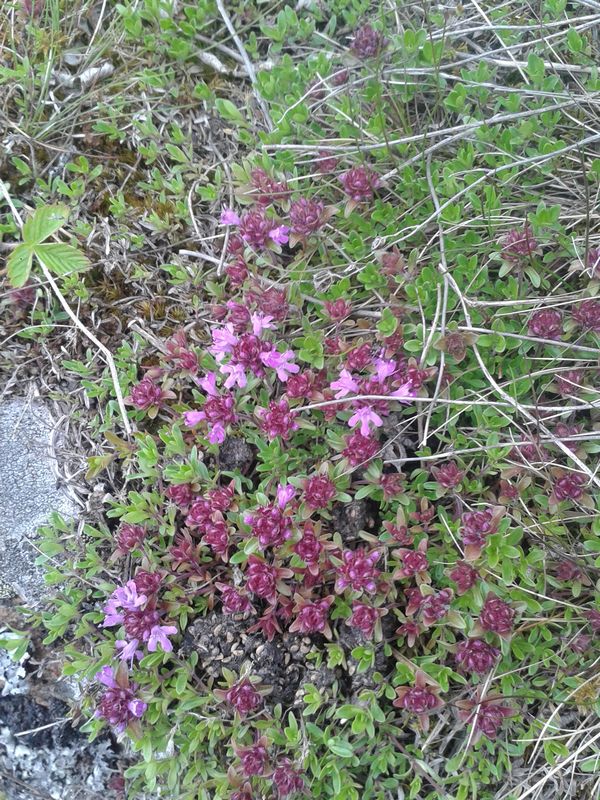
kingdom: Plantae
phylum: Tracheophyta
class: Magnoliopsida
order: Lamiales
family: Lamiaceae
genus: Thymus
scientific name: Thymus serpyllum
